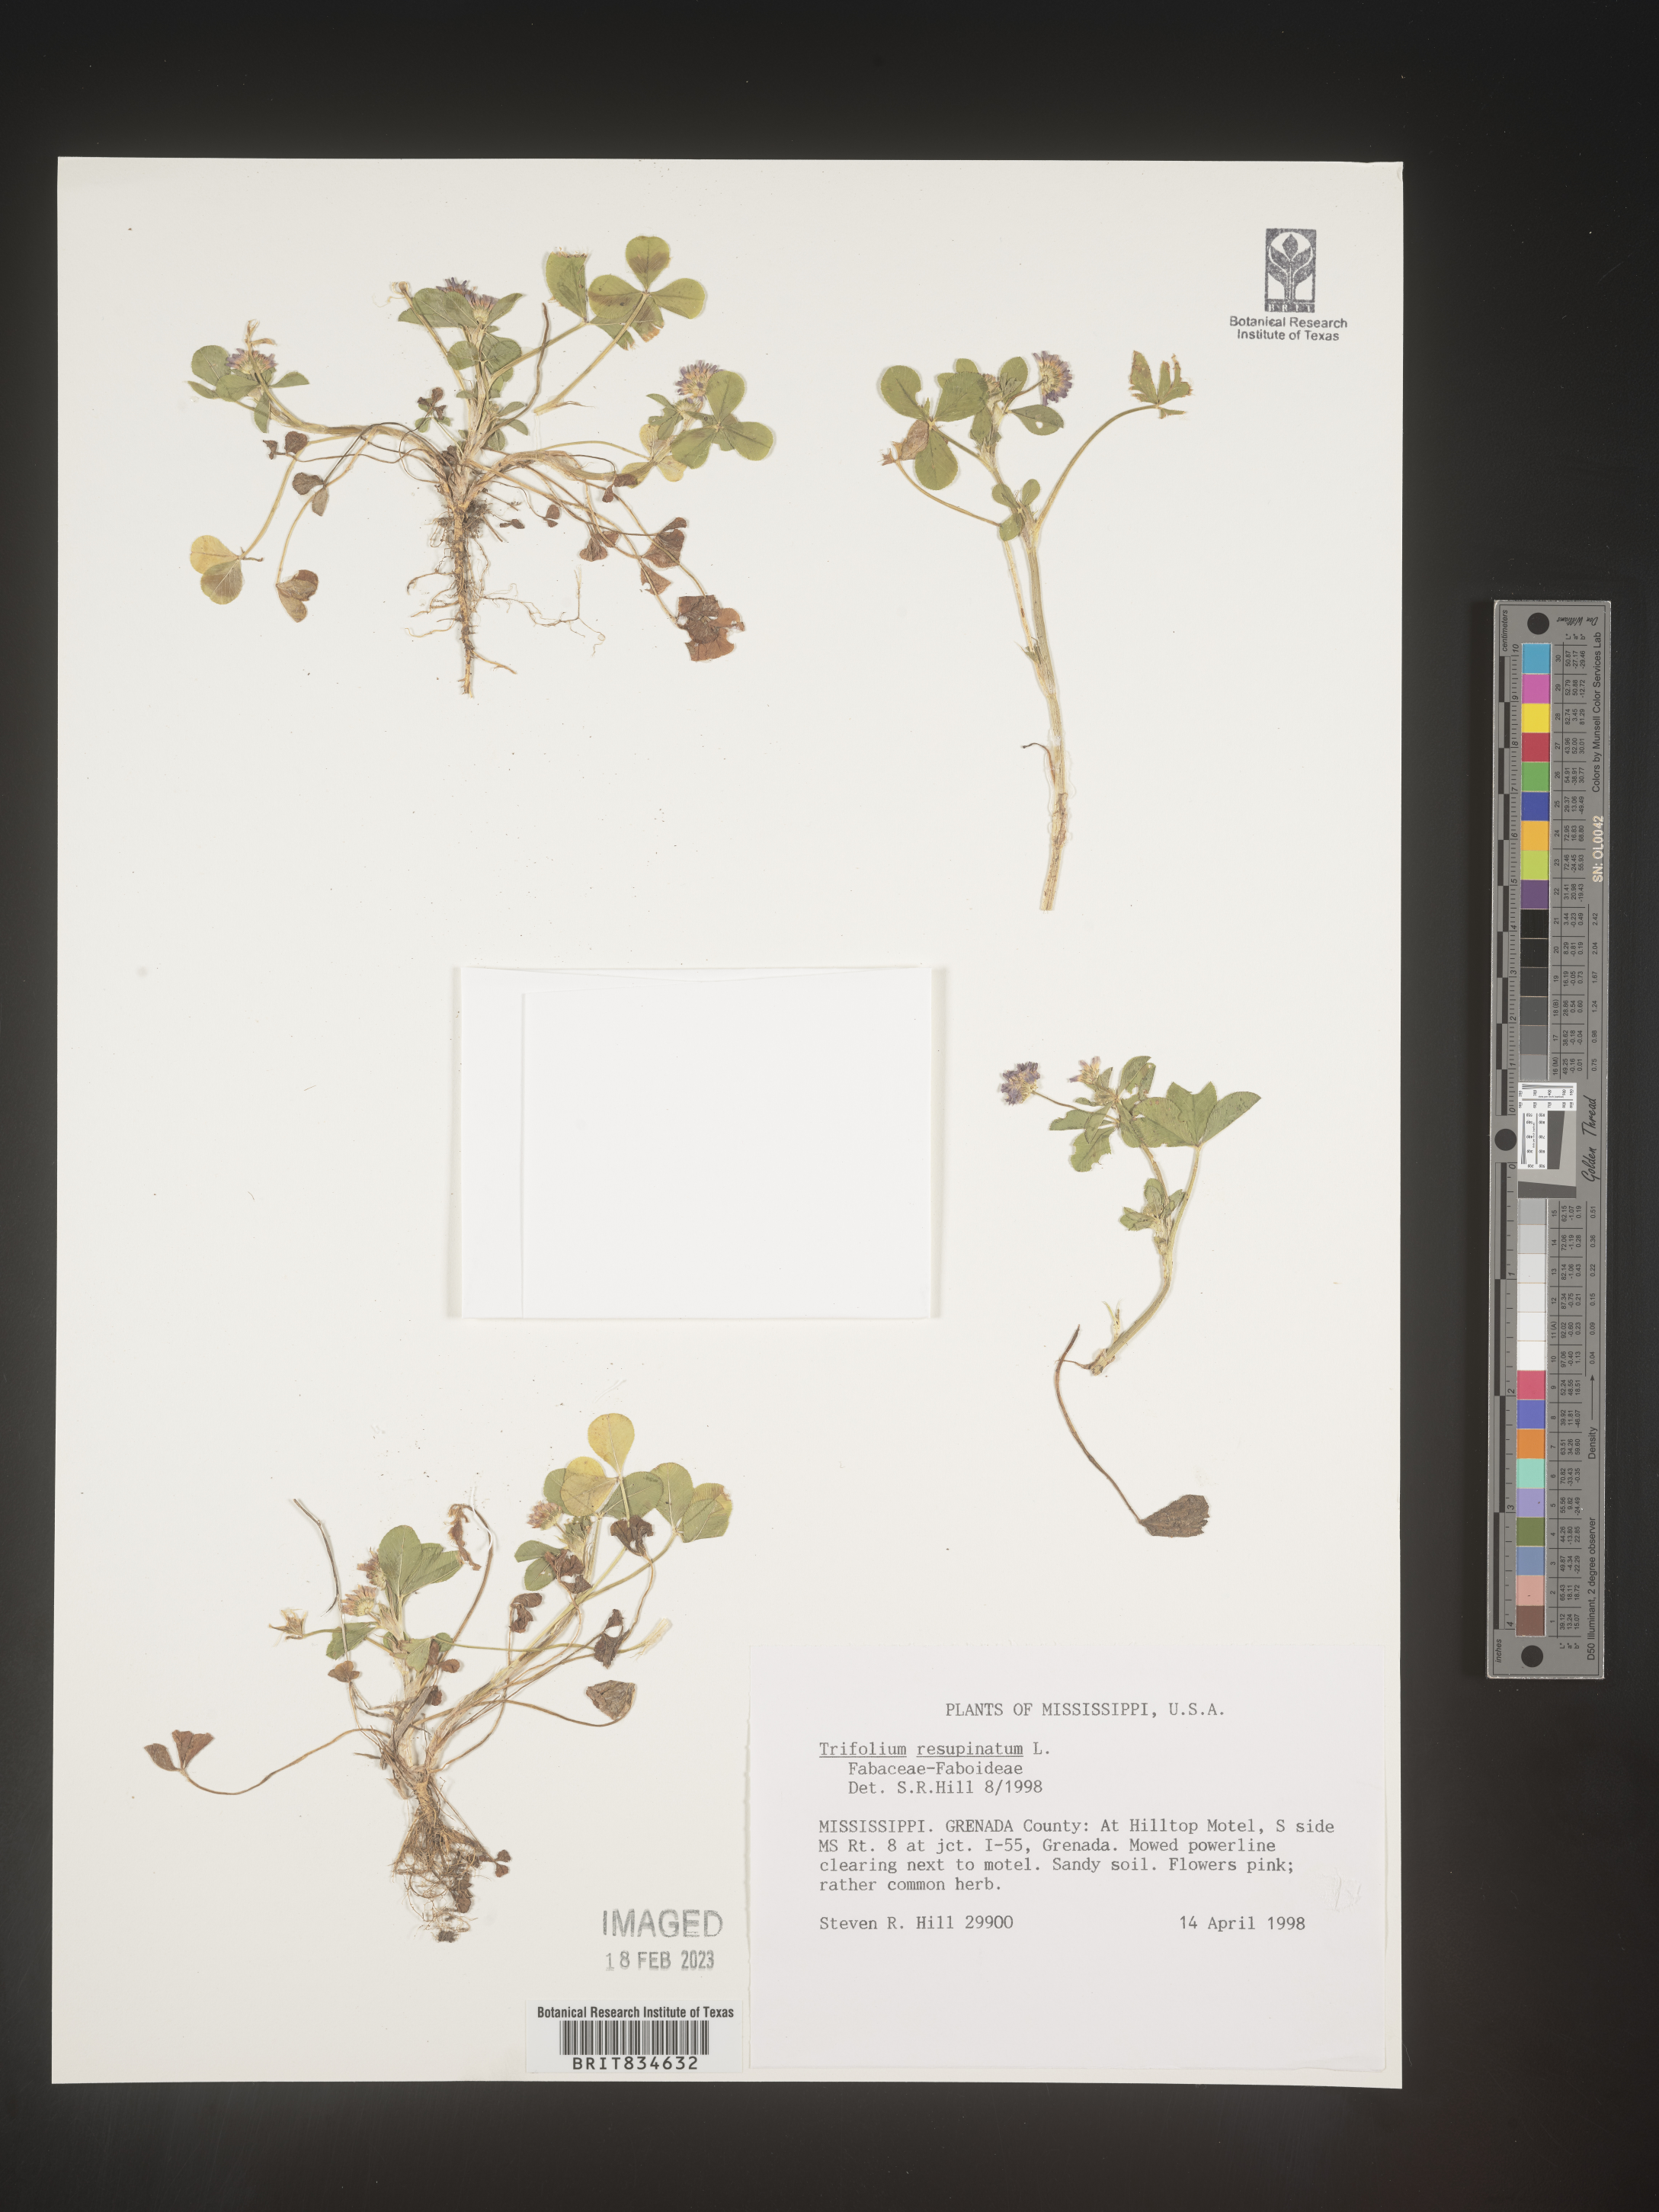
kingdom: Plantae
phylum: Tracheophyta
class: Magnoliopsida
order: Fabales
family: Fabaceae
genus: Trifolium
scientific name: Trifolium resupinatum
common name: Reversed clover
